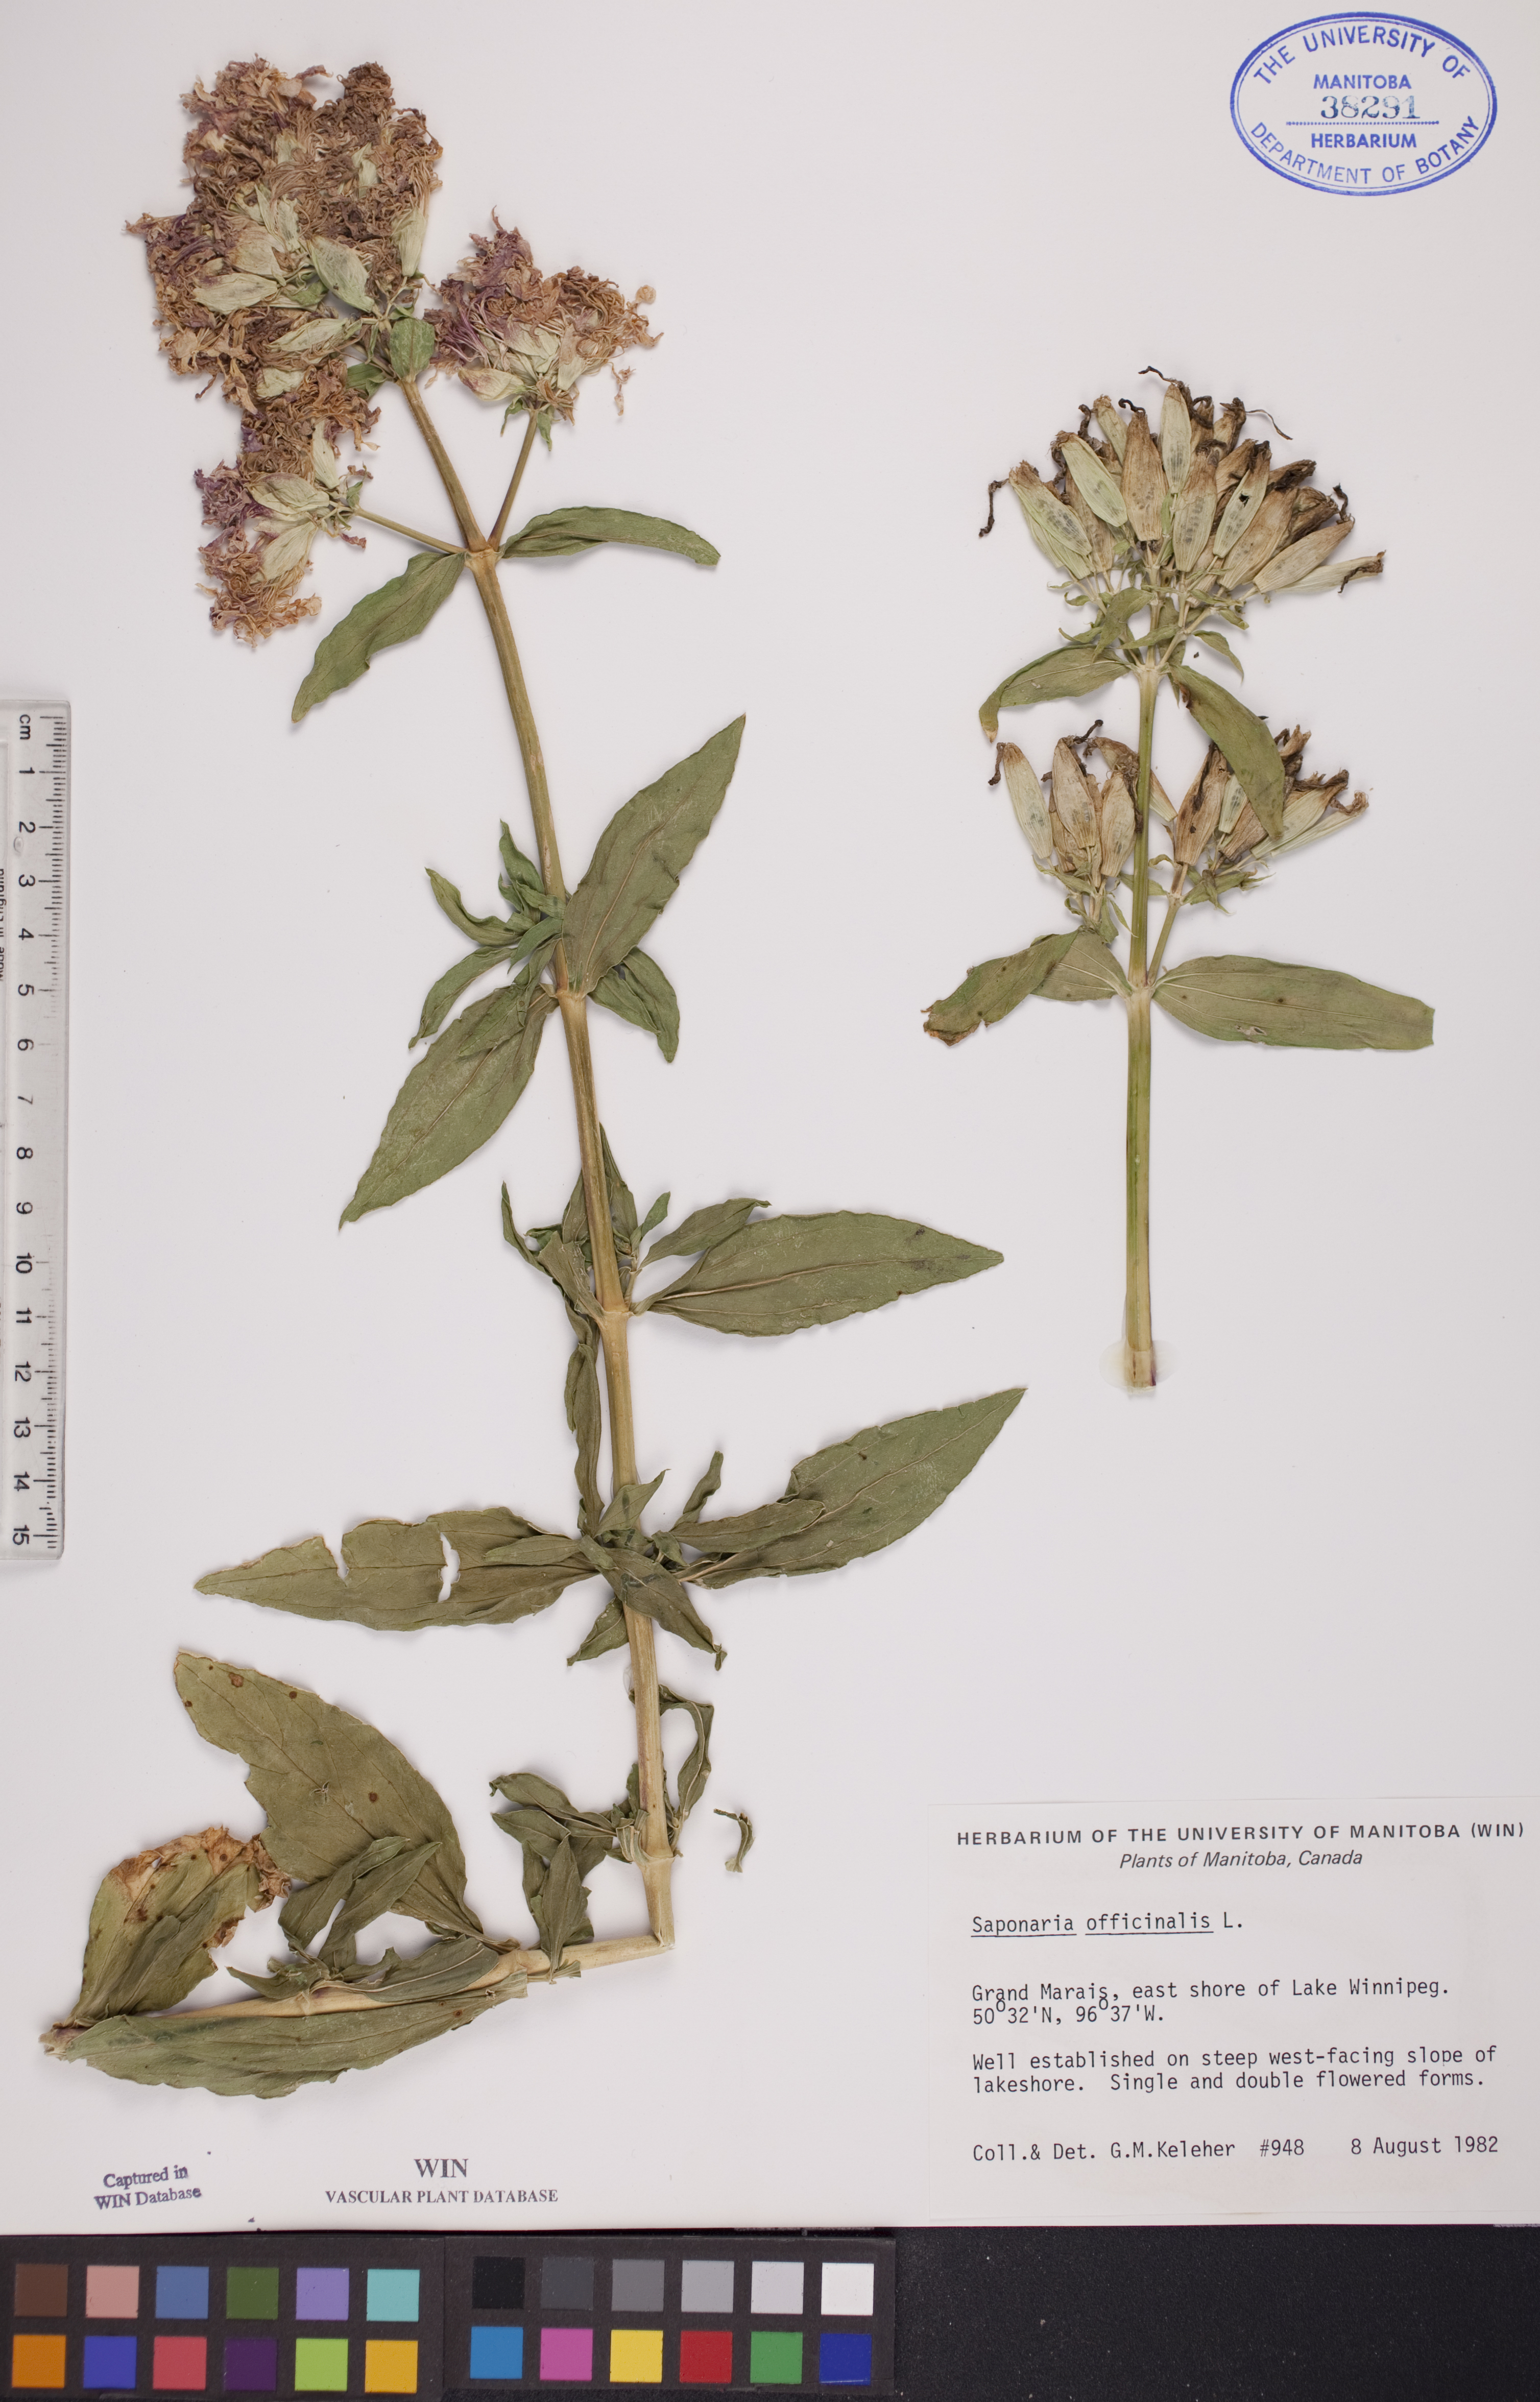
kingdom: Plantae
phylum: Tracheophyta
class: Magnoliopsida
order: Caryophyllales
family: Caryophyllaceae
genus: Saponaria
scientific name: Saponaria officinalis
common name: Soapwort
